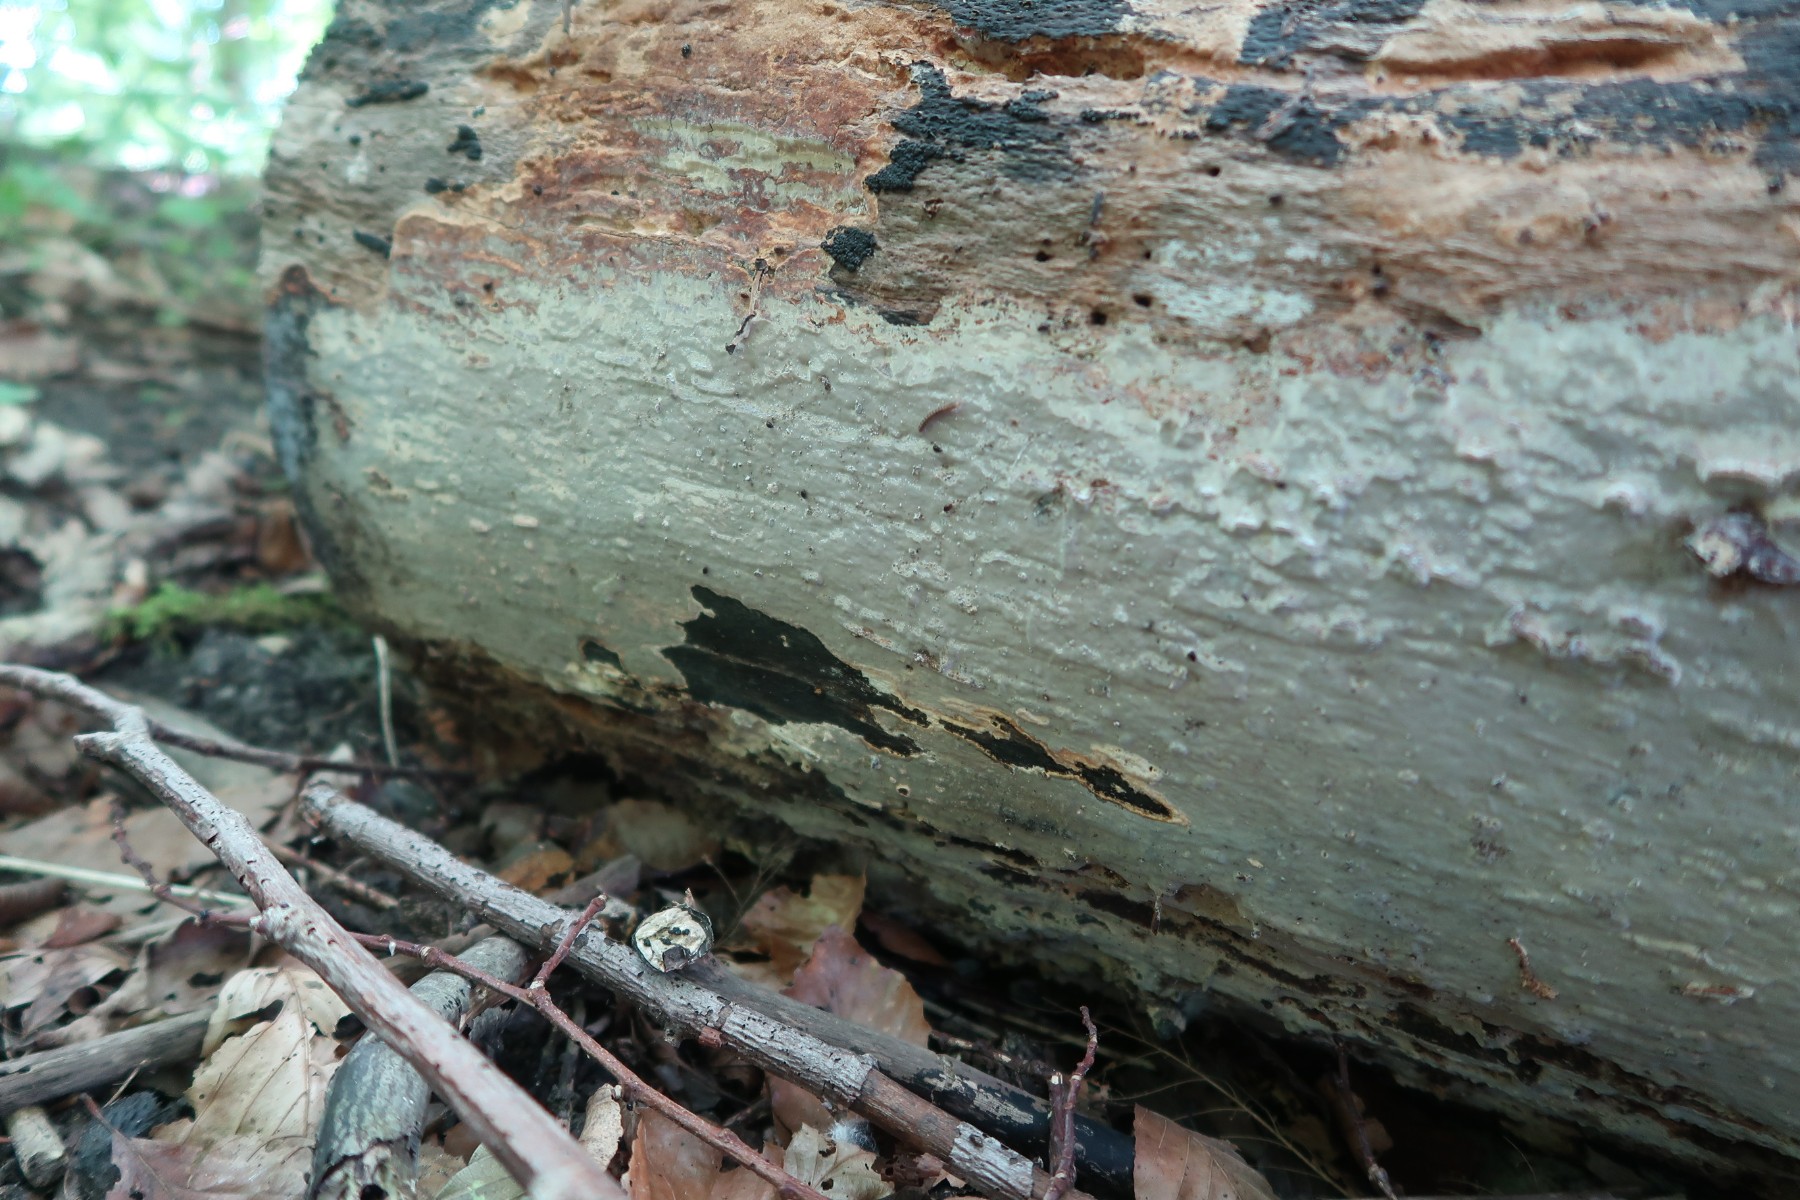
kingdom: Fungi
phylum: Basidiomycota
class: Agaricomycetes
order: Russulales
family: Peniophoraceae
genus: Scytinostroma
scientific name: Scytinostroma hemidichophyticum
